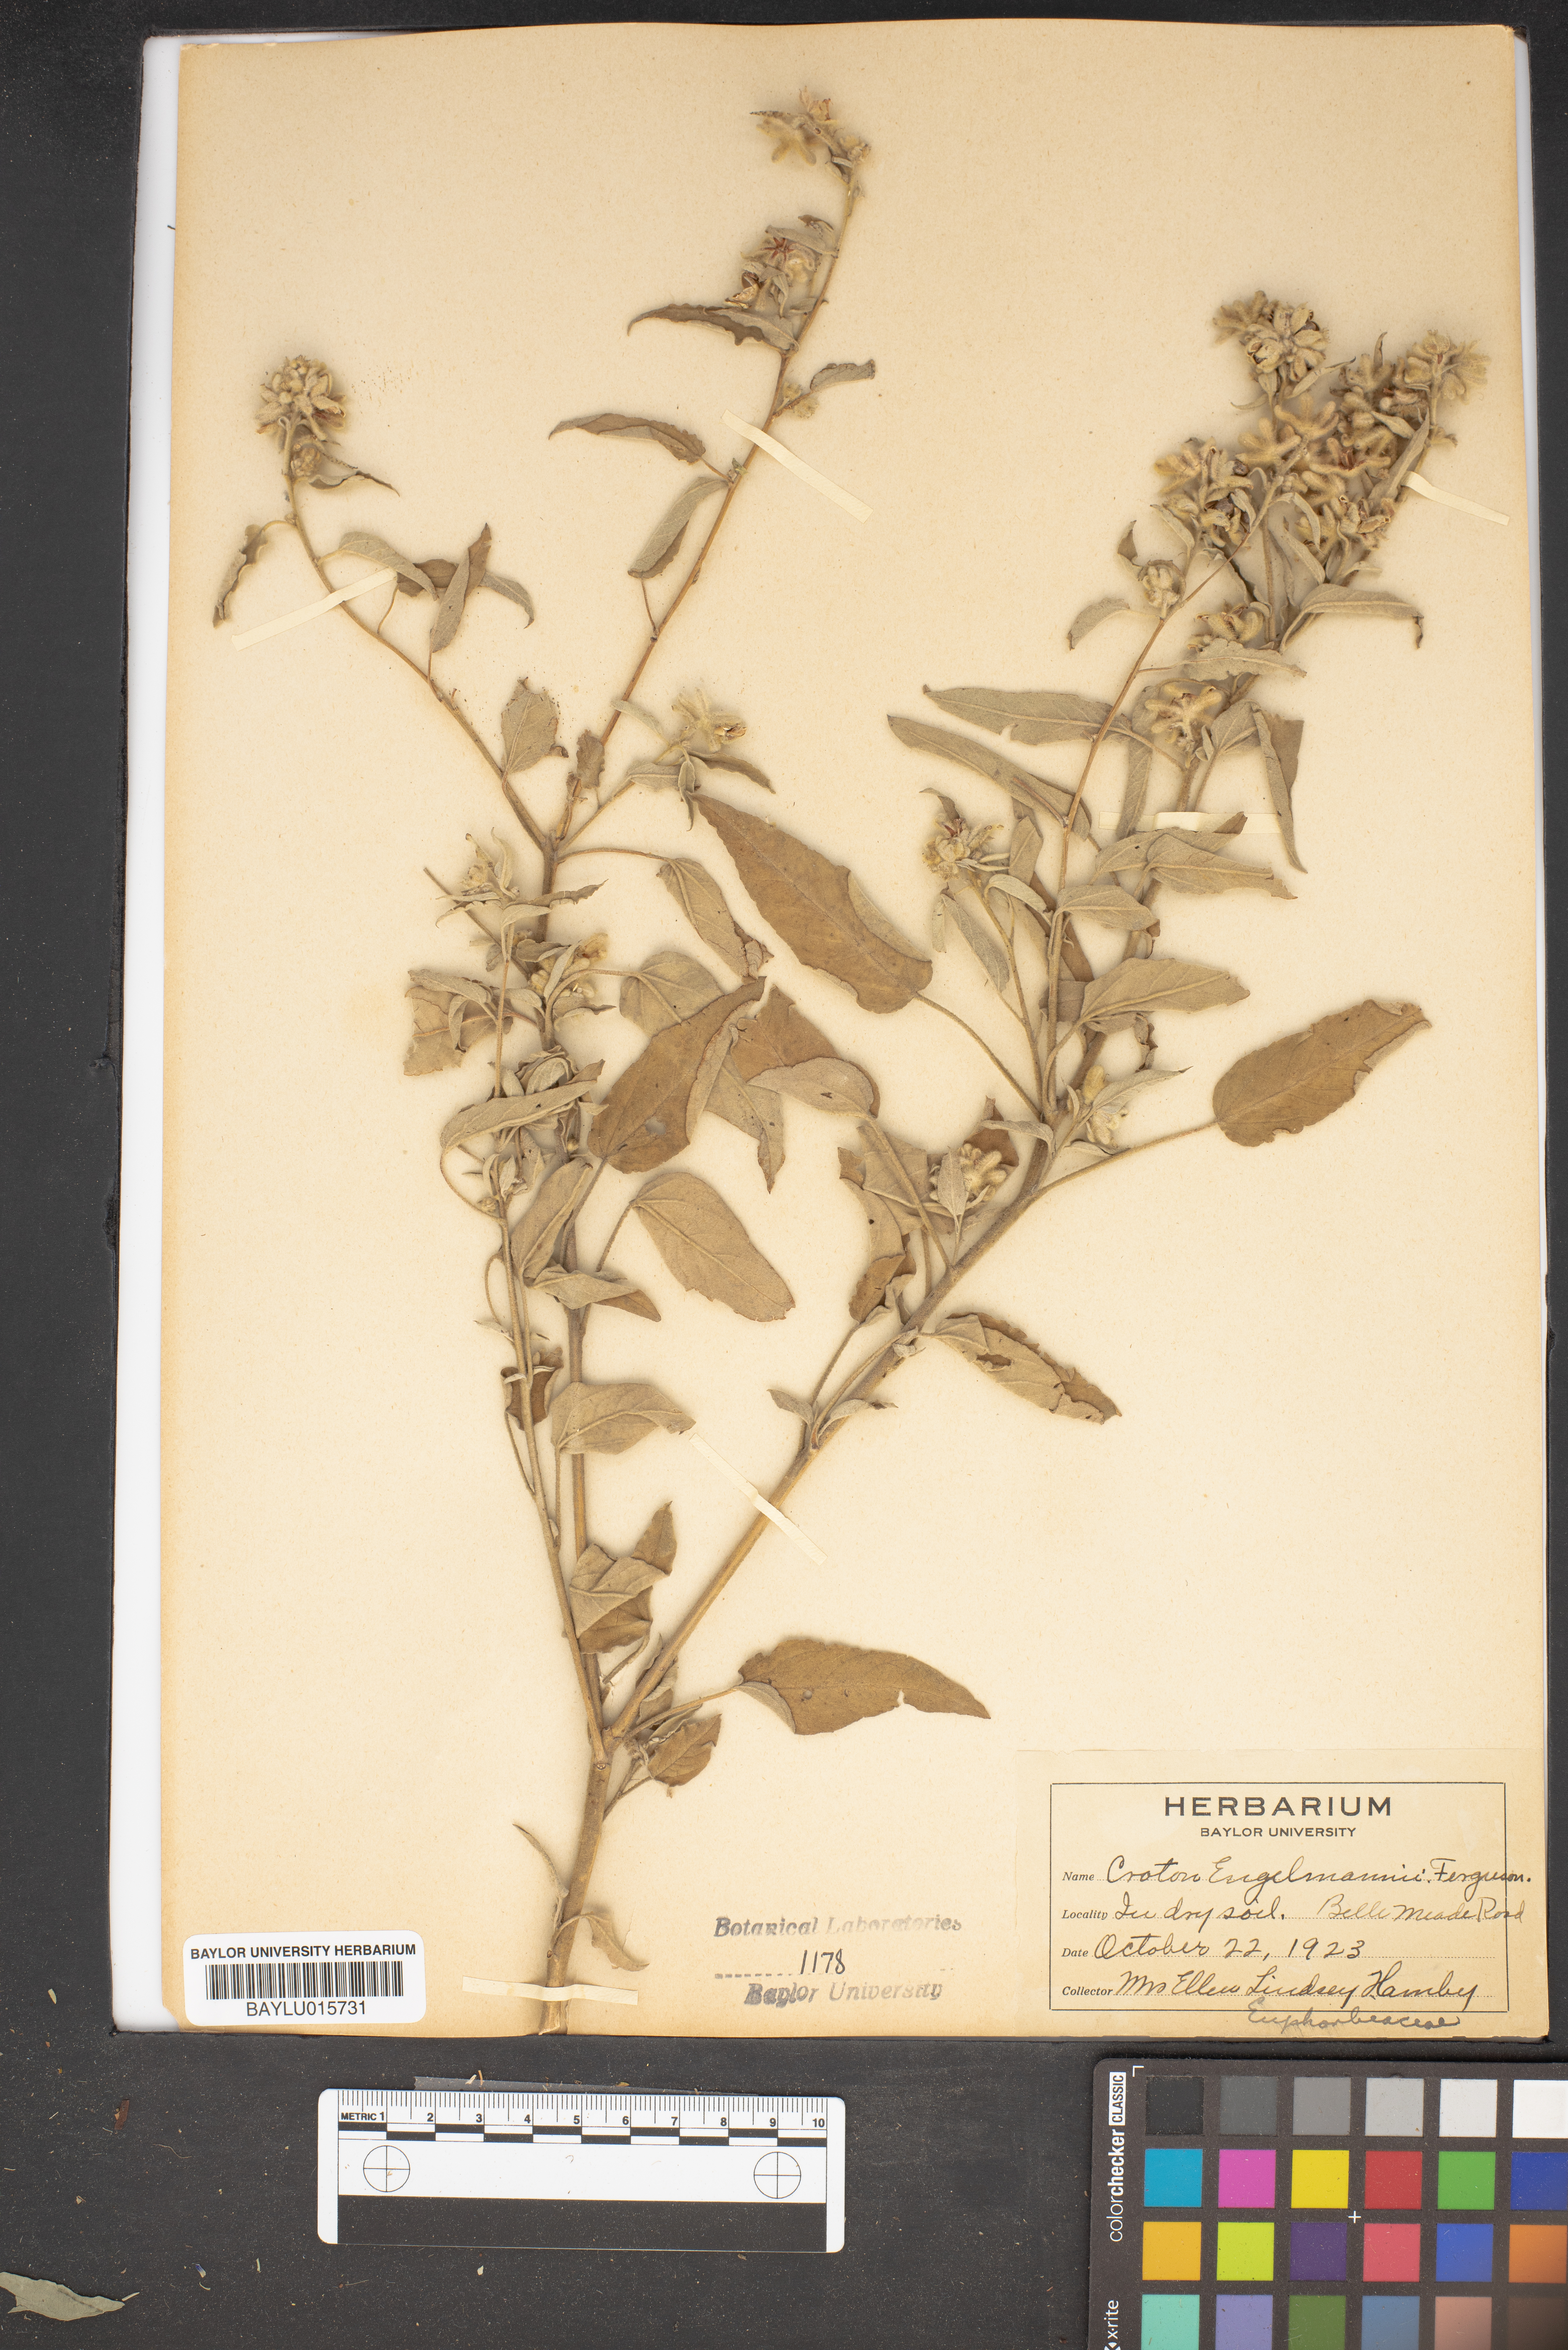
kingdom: Plantae
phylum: Tracheophyta
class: Magnoliopsida
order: Malpighiales
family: Euphorbiaceae
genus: Croton
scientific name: Croton lindheimeri
